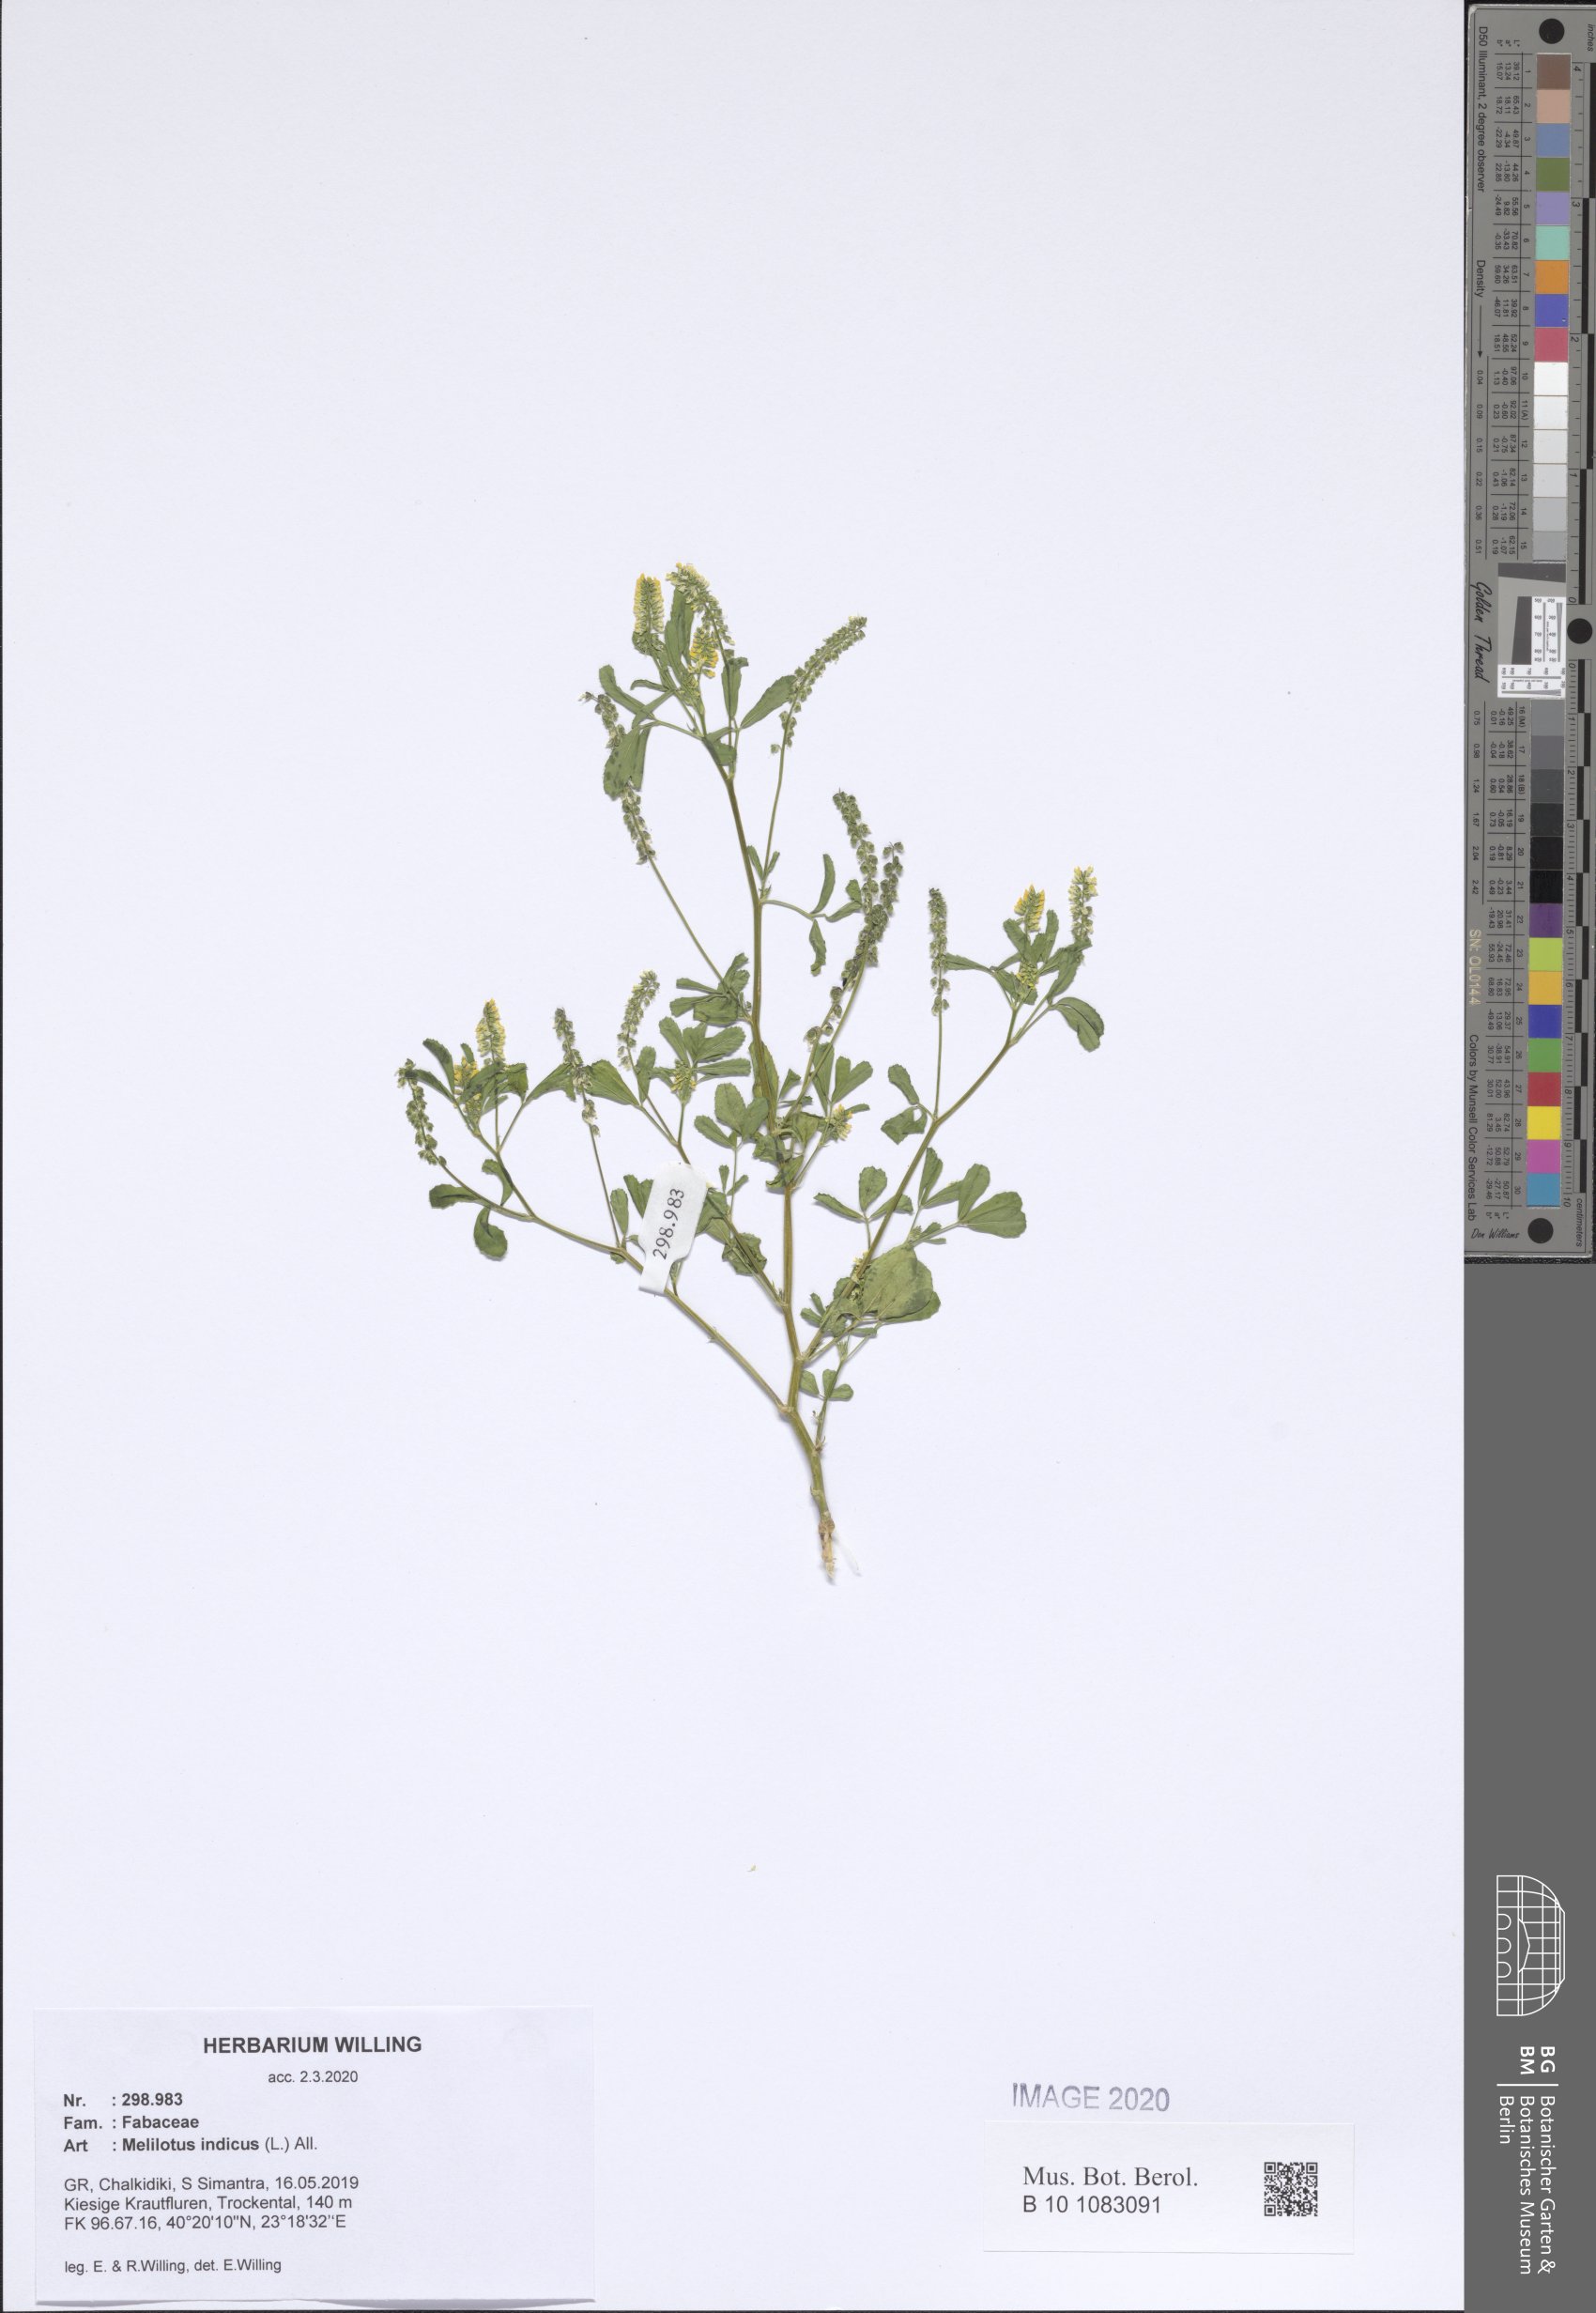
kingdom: Plantae
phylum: Tracheophyta
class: Magnoliopsida
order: Fabales
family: Fabaceae
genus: Melilotus
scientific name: Melilotus indicus
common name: Small melilot
